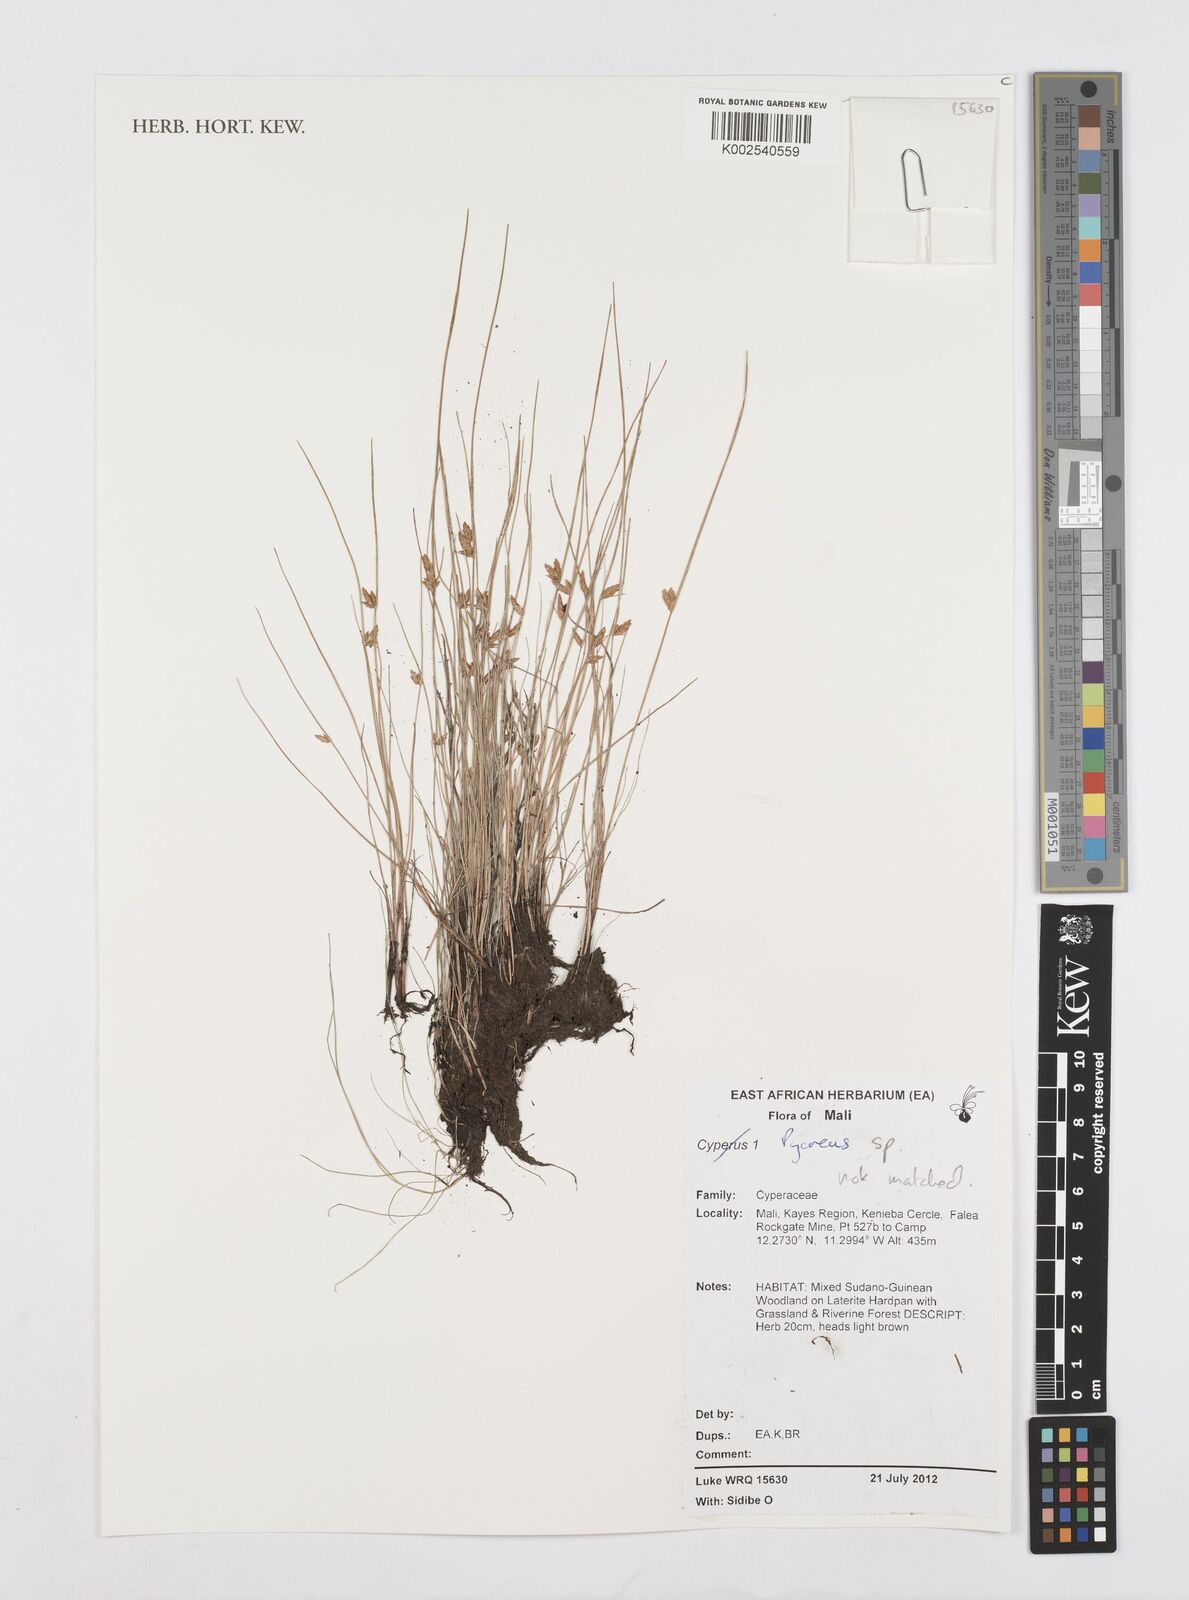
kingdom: Plantae
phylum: Tracheophyta
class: Liliopsida
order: Poales
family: Cyperaceae
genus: Cyperus
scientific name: Cyperus
